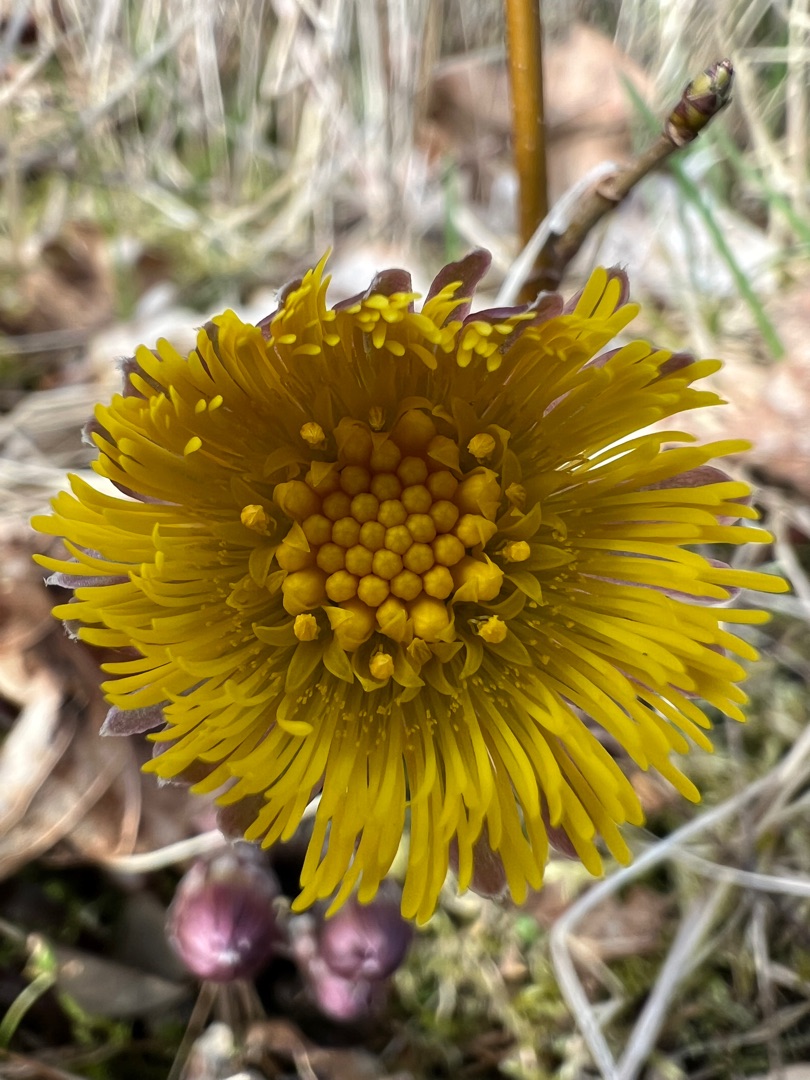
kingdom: Plantae
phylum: Tracheophyta
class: Magnoliopsida
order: Asterales
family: Asteraceae
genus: Tussilago
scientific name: Tussilago farfara
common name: Følfod
